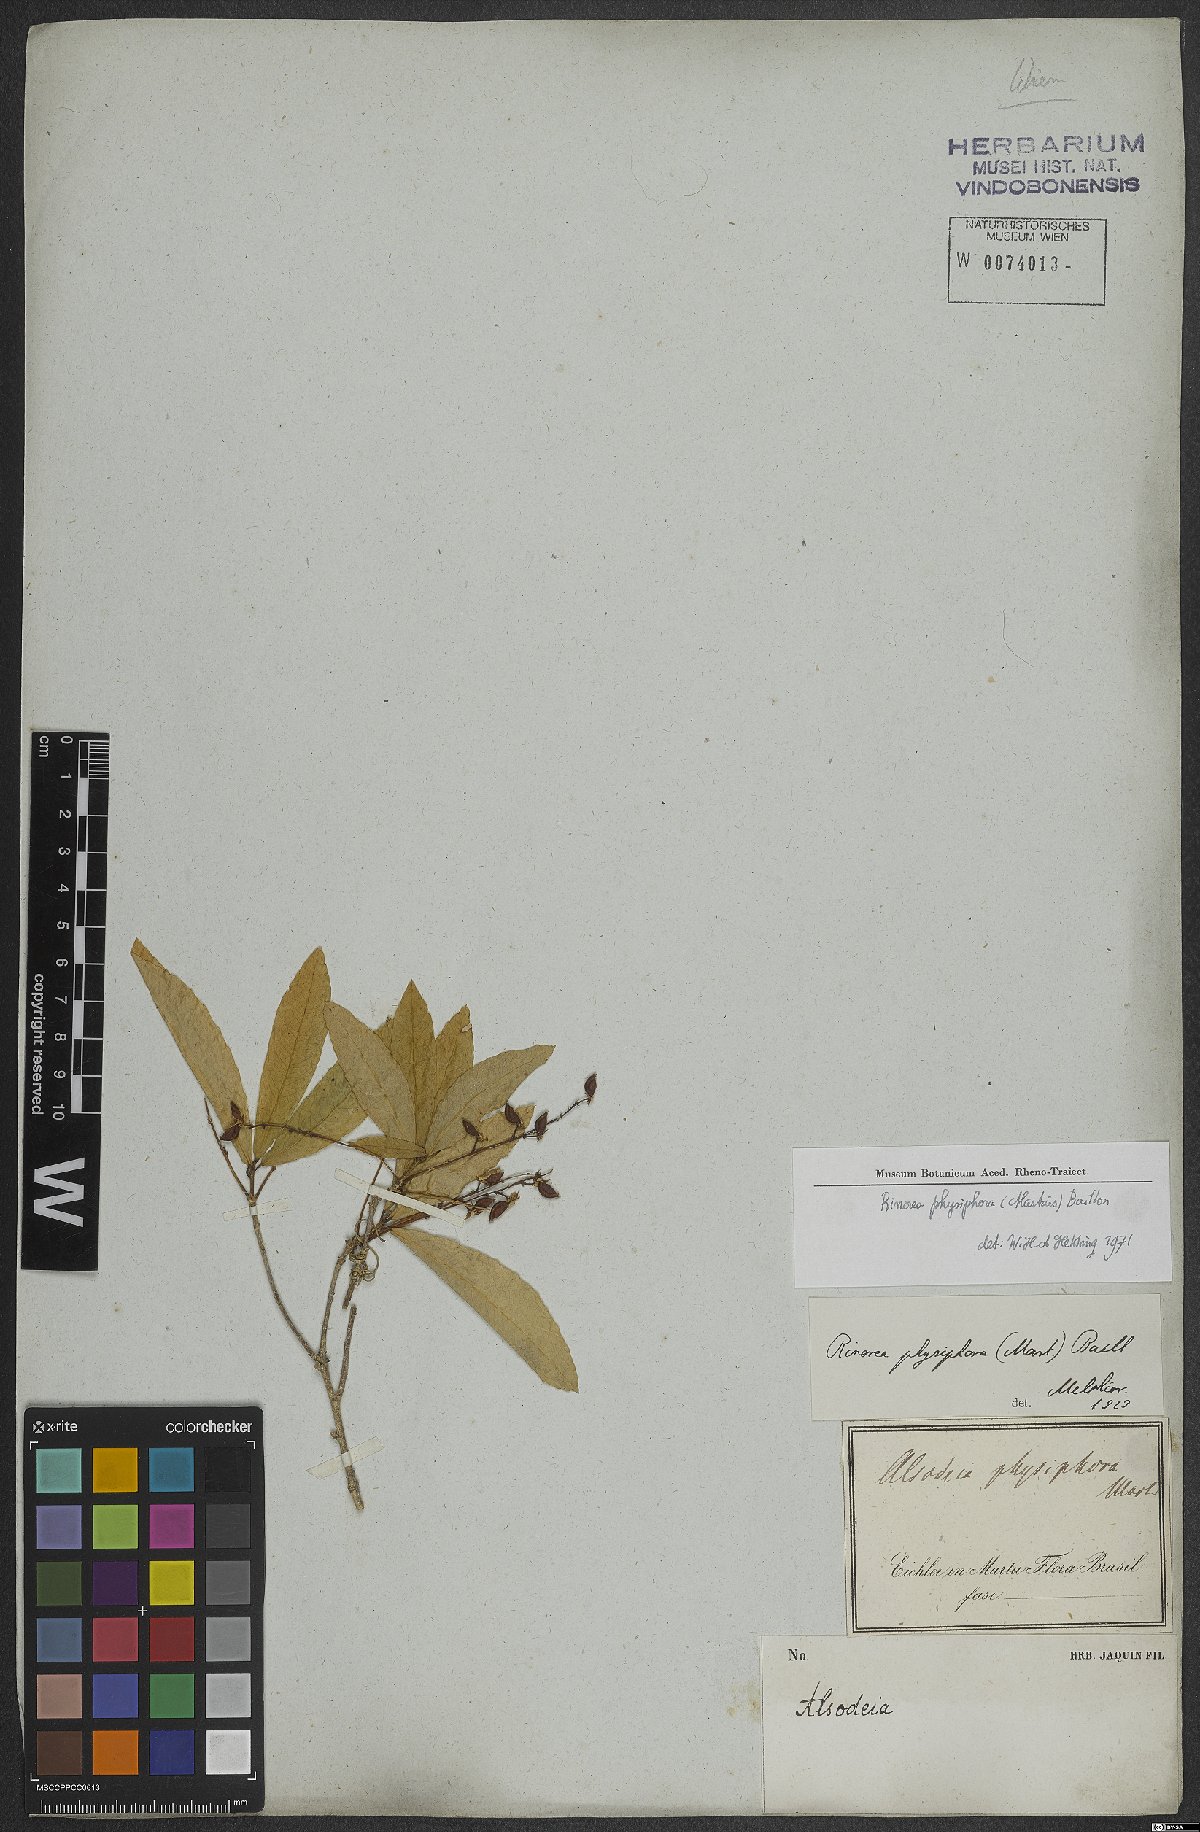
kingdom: Plantae
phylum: Tracheophyta
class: Magnoliopsida
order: Malpighiales
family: Violaceae
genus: Rinorea
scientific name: Rinorea laevigata
